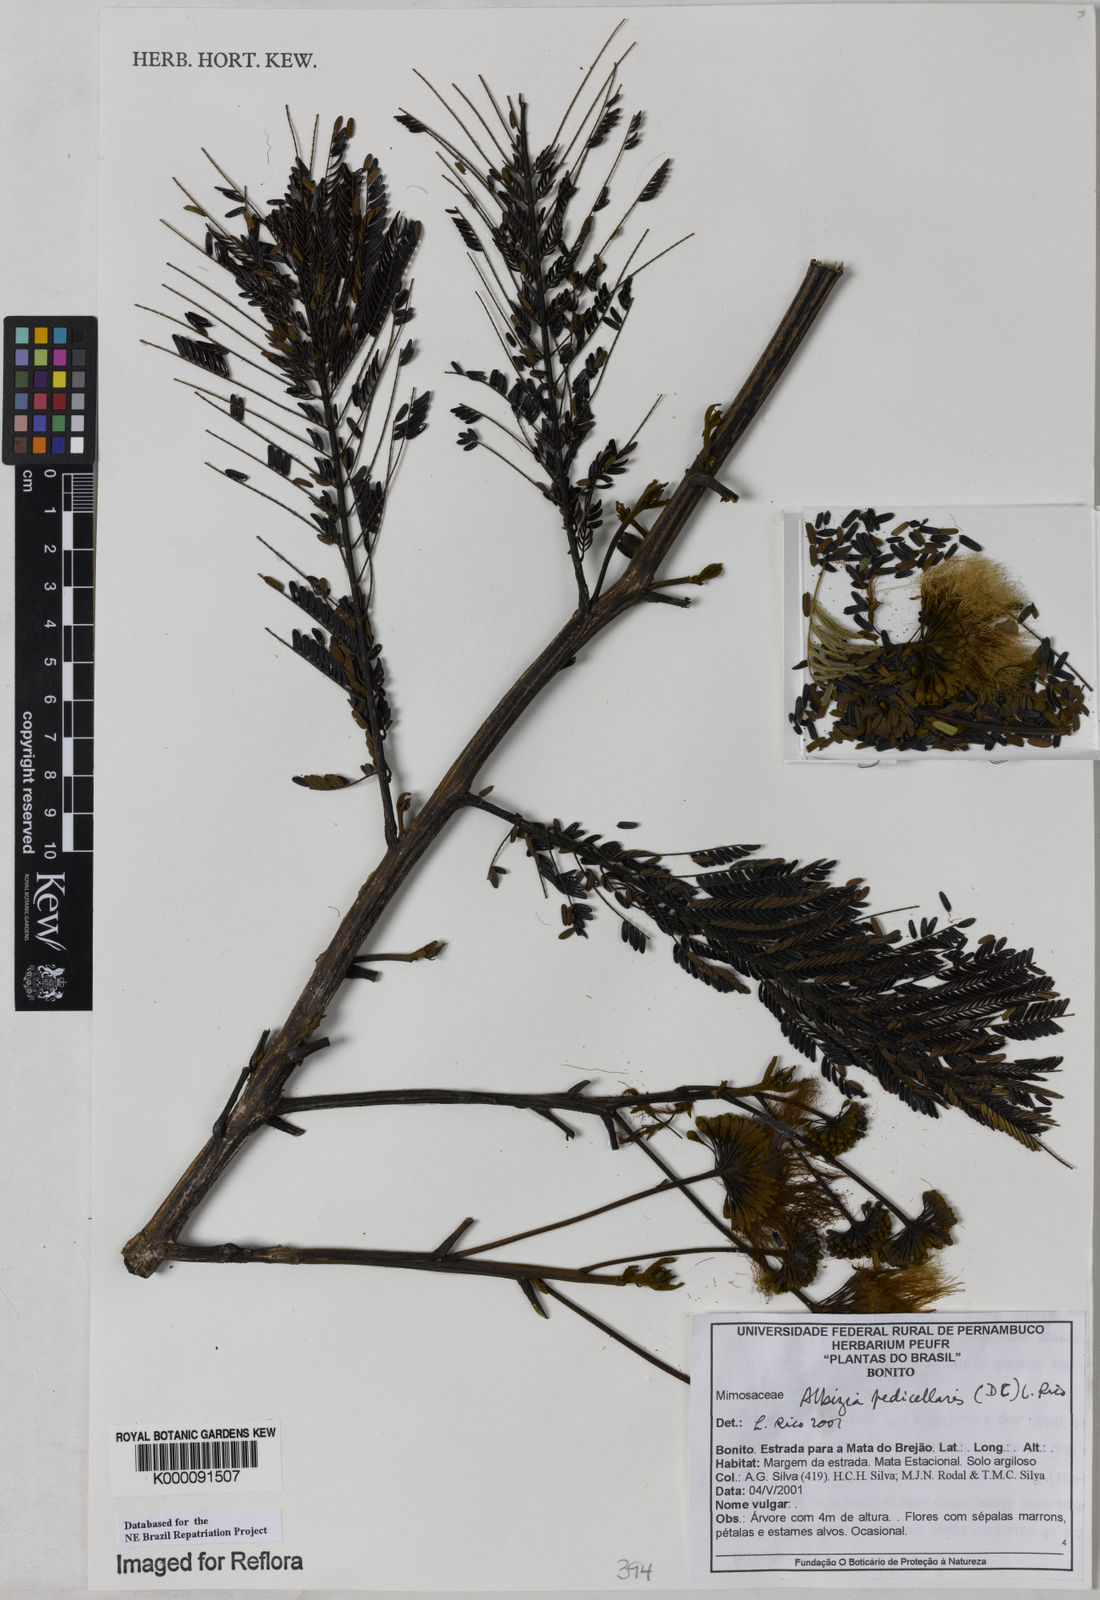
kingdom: Plantae
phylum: Tracheophyta
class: Magnoliopsida
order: Fabales
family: Fabaceae
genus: Balizia
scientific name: Balizia pedicellaris
